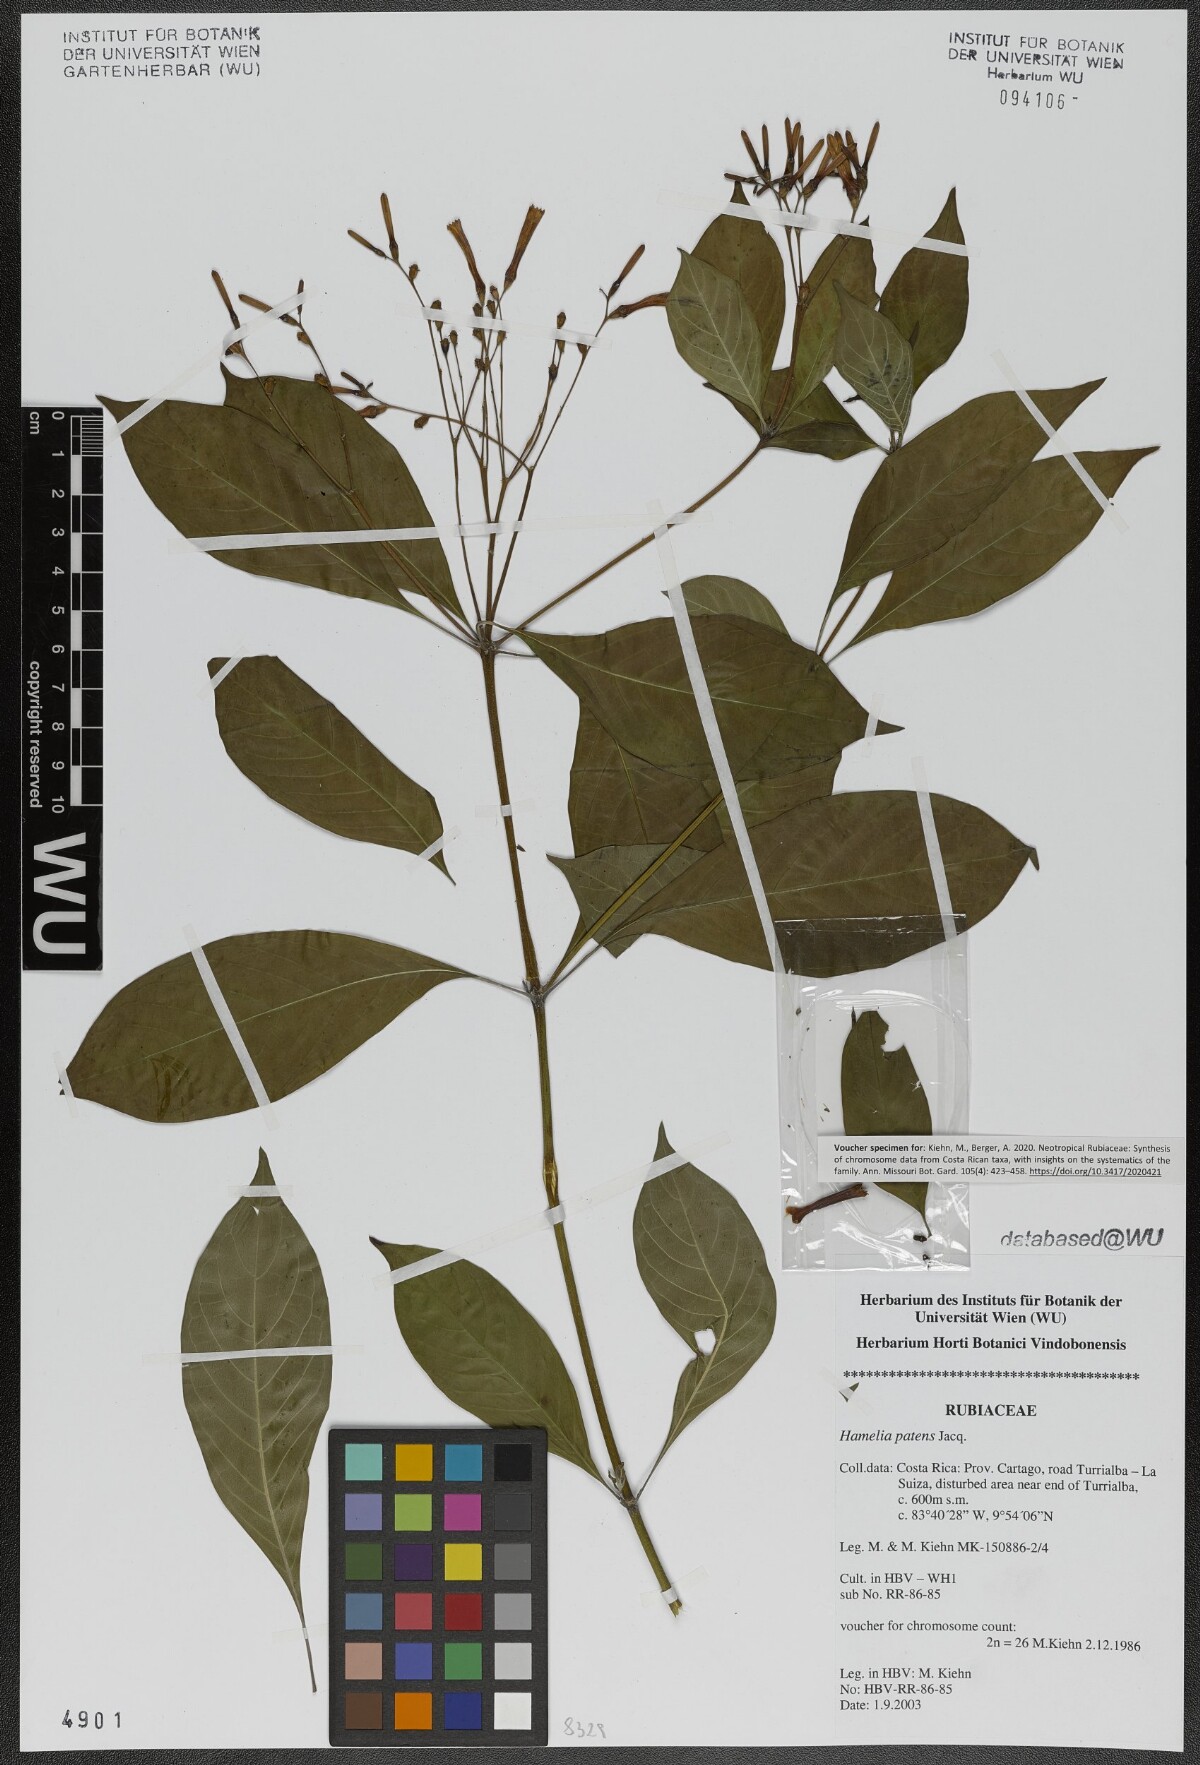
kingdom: Plantae
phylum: Tracheophyta
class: Magnoliopsida
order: Gentianales
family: Rubiaceae
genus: Hamelia
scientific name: Hamelia patens
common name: Redhead
